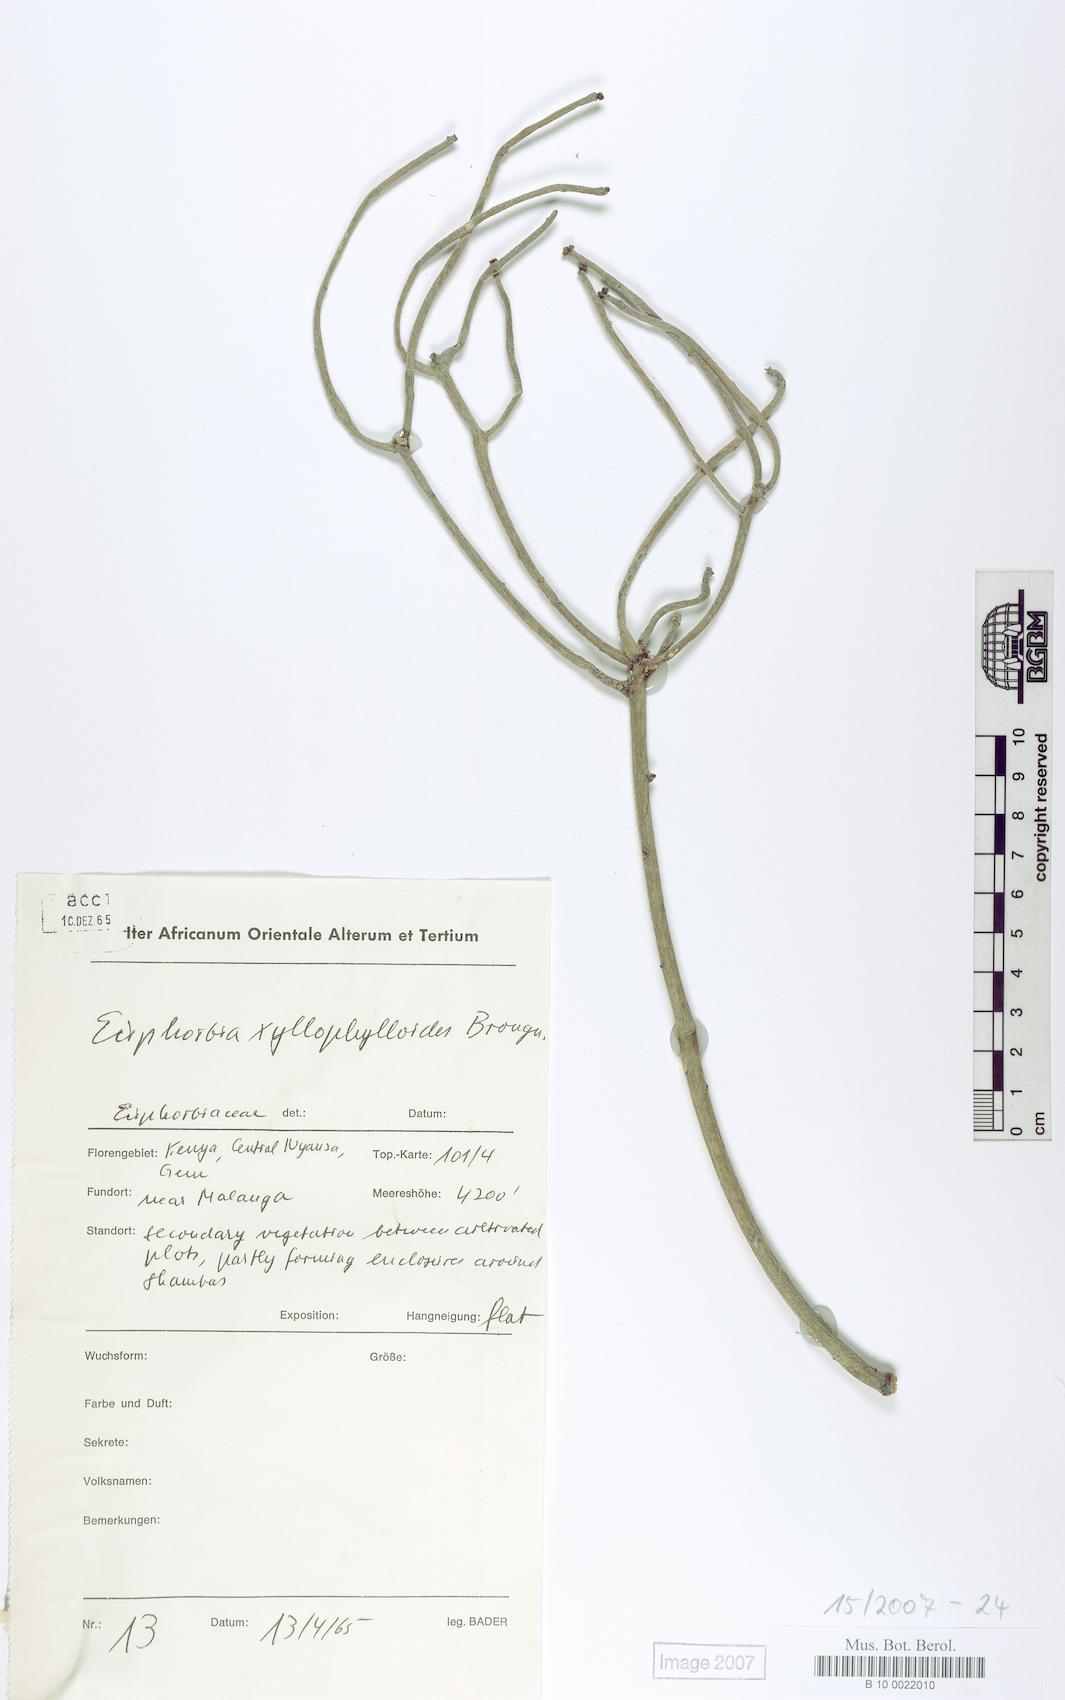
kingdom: Plantae
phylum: Tracheophyta
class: Magnoliopsida
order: Malpighiales
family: Euphorbiaceae
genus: Euphorbia
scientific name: Euphorbia xylophylloides
